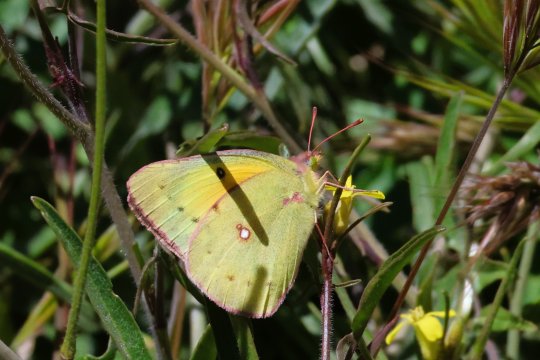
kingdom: Animalia
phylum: Arthropoda
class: Insecta
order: Lepidoptera
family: Pieridae
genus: Colias
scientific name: Colias eurytheme
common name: Orange Sulphur
